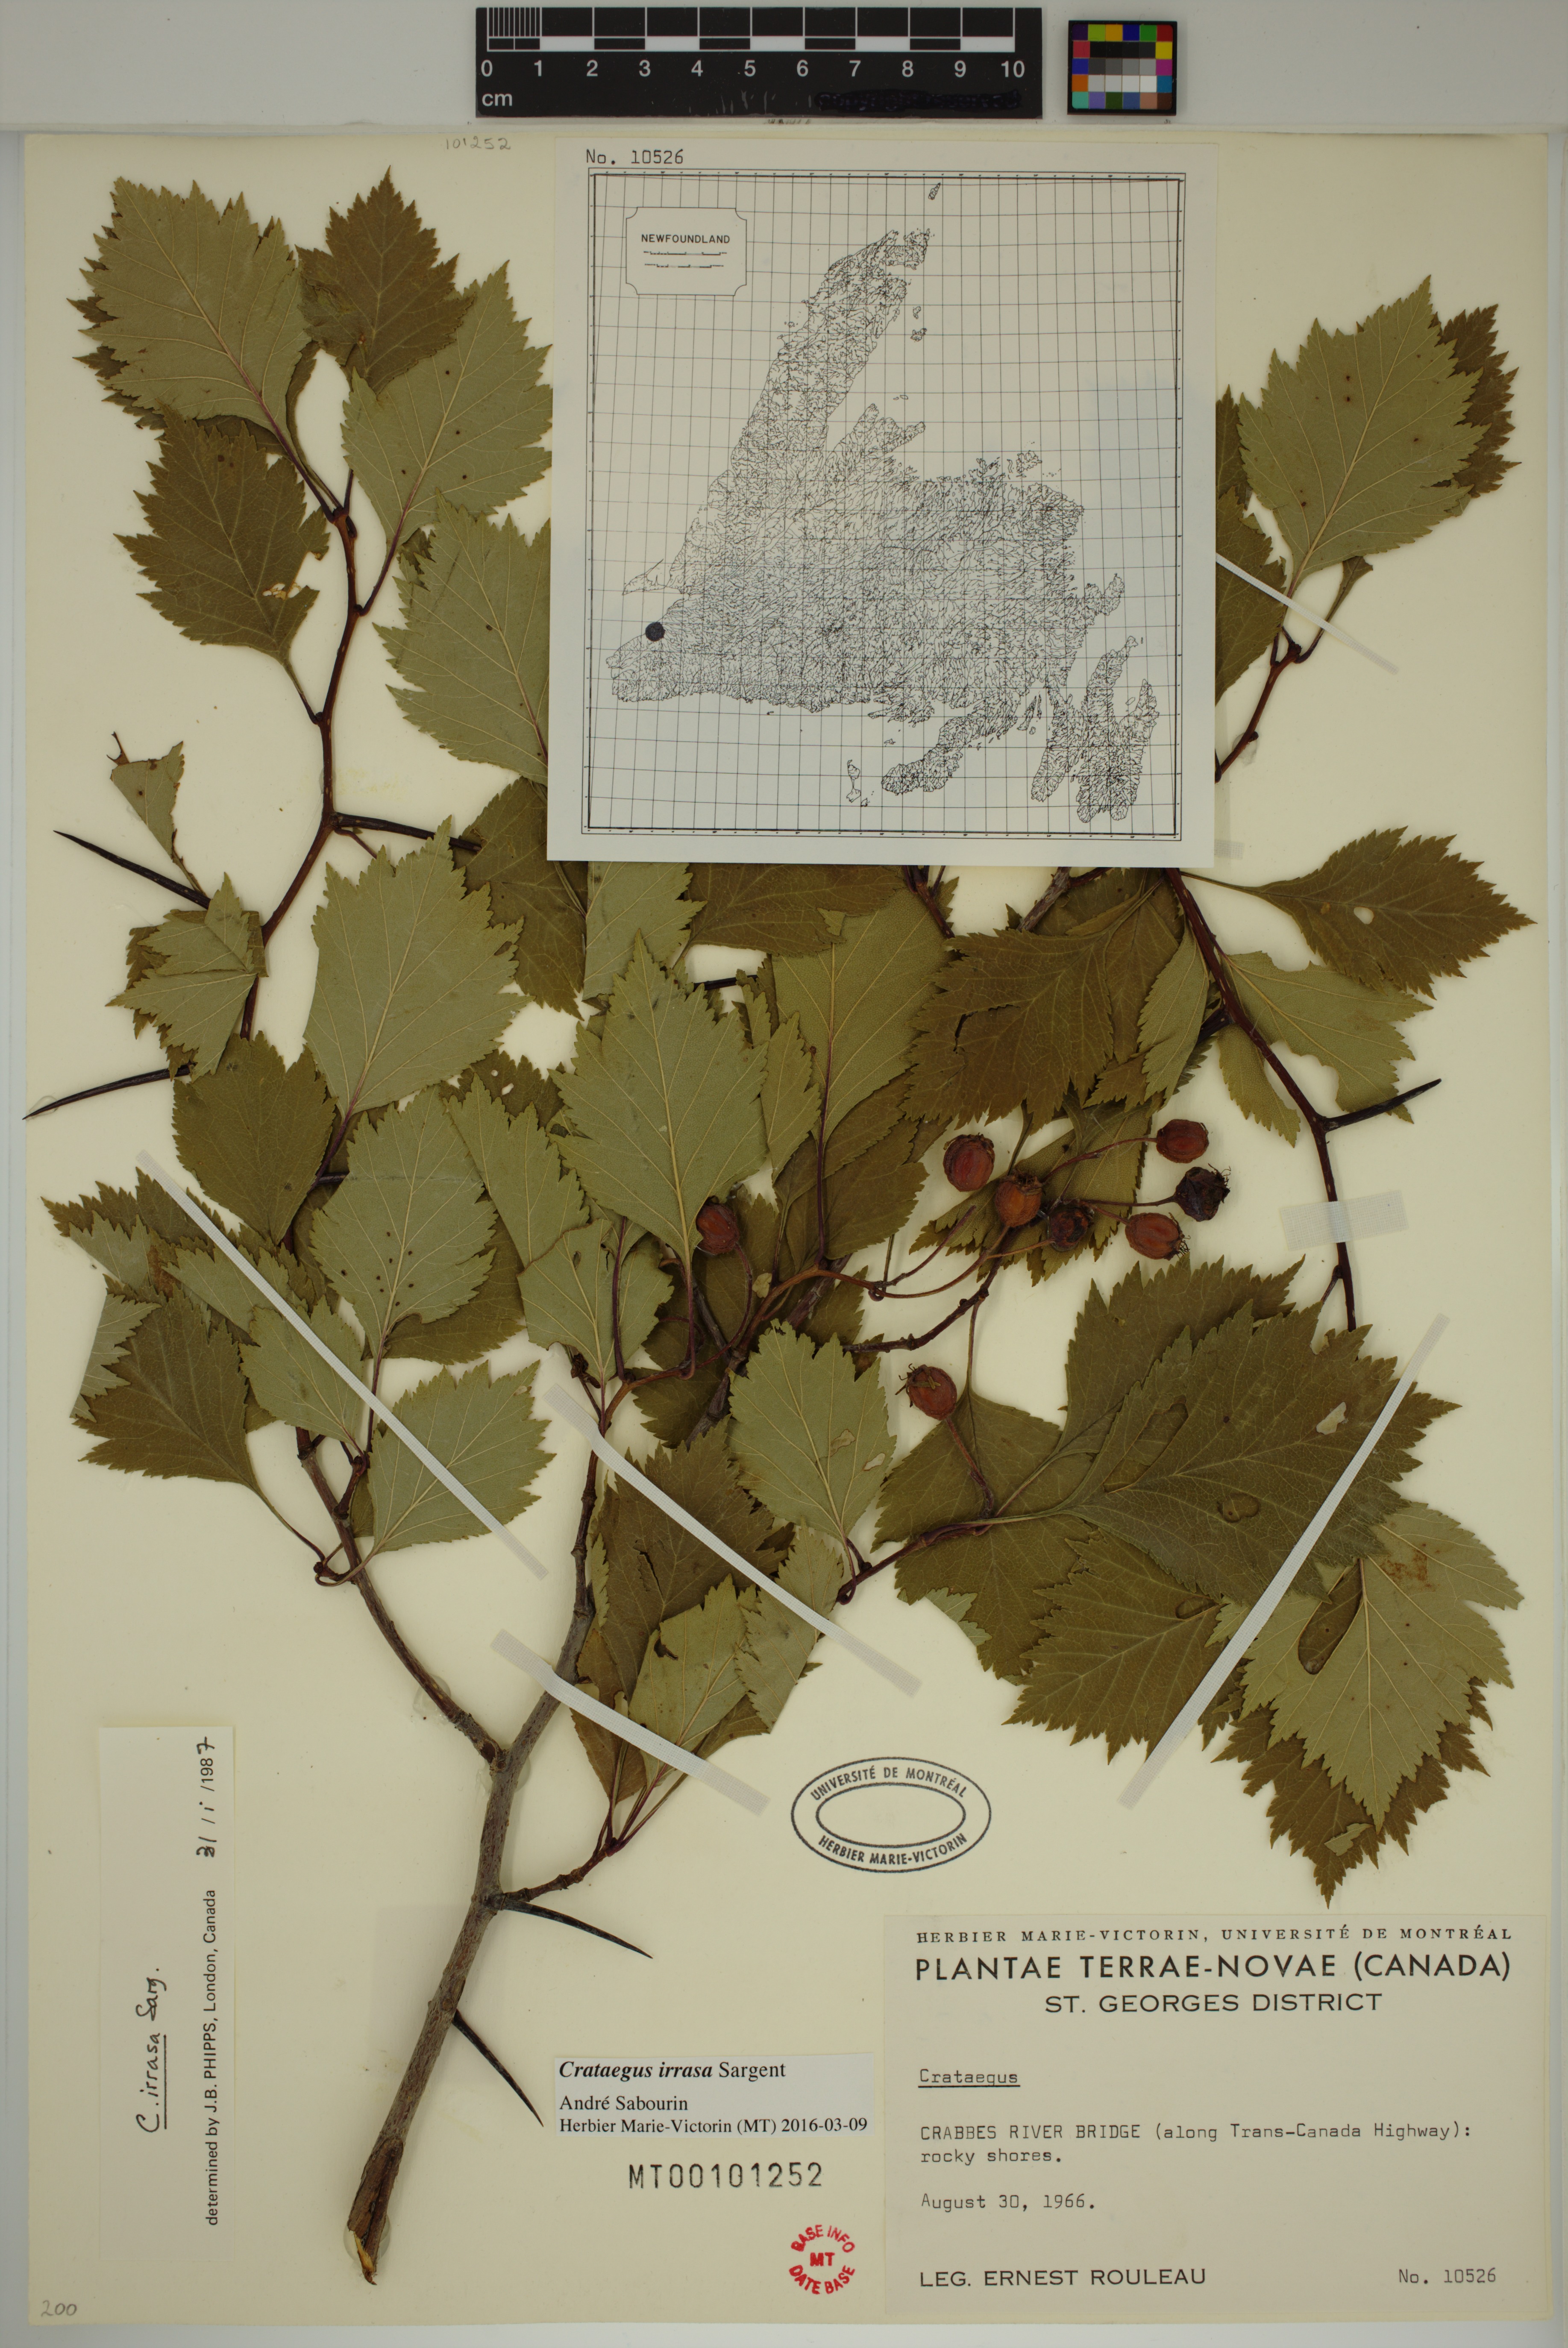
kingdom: Plantae
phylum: Tracheophyta
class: Magnoliopsida
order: Rosales
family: Rosaceae
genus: Crataegus
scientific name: Crataegus irrasa
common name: Unshorn hawthorn
